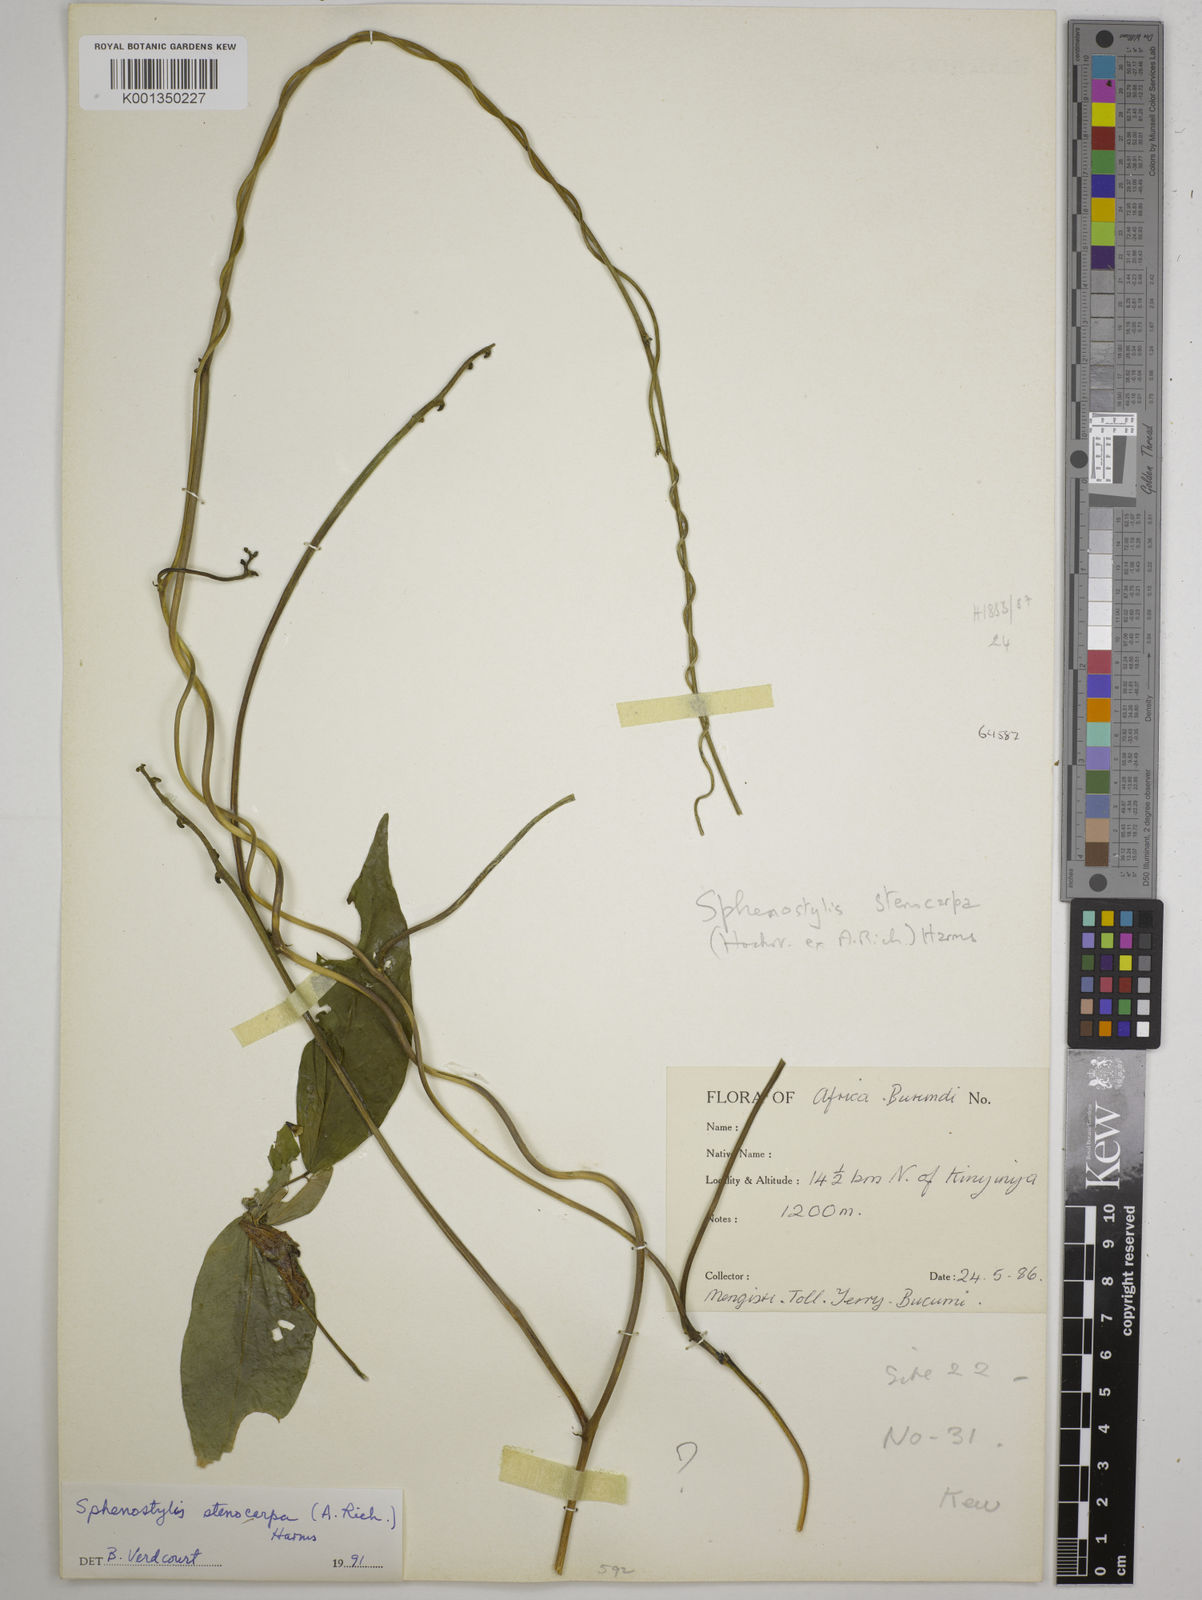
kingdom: Plantae
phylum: Tracheophyta
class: Magnoliopsida
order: Fabales
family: Fabaceae
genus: Sphenostylis
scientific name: Sphenostylis stenocarpa
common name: Yam-pea
